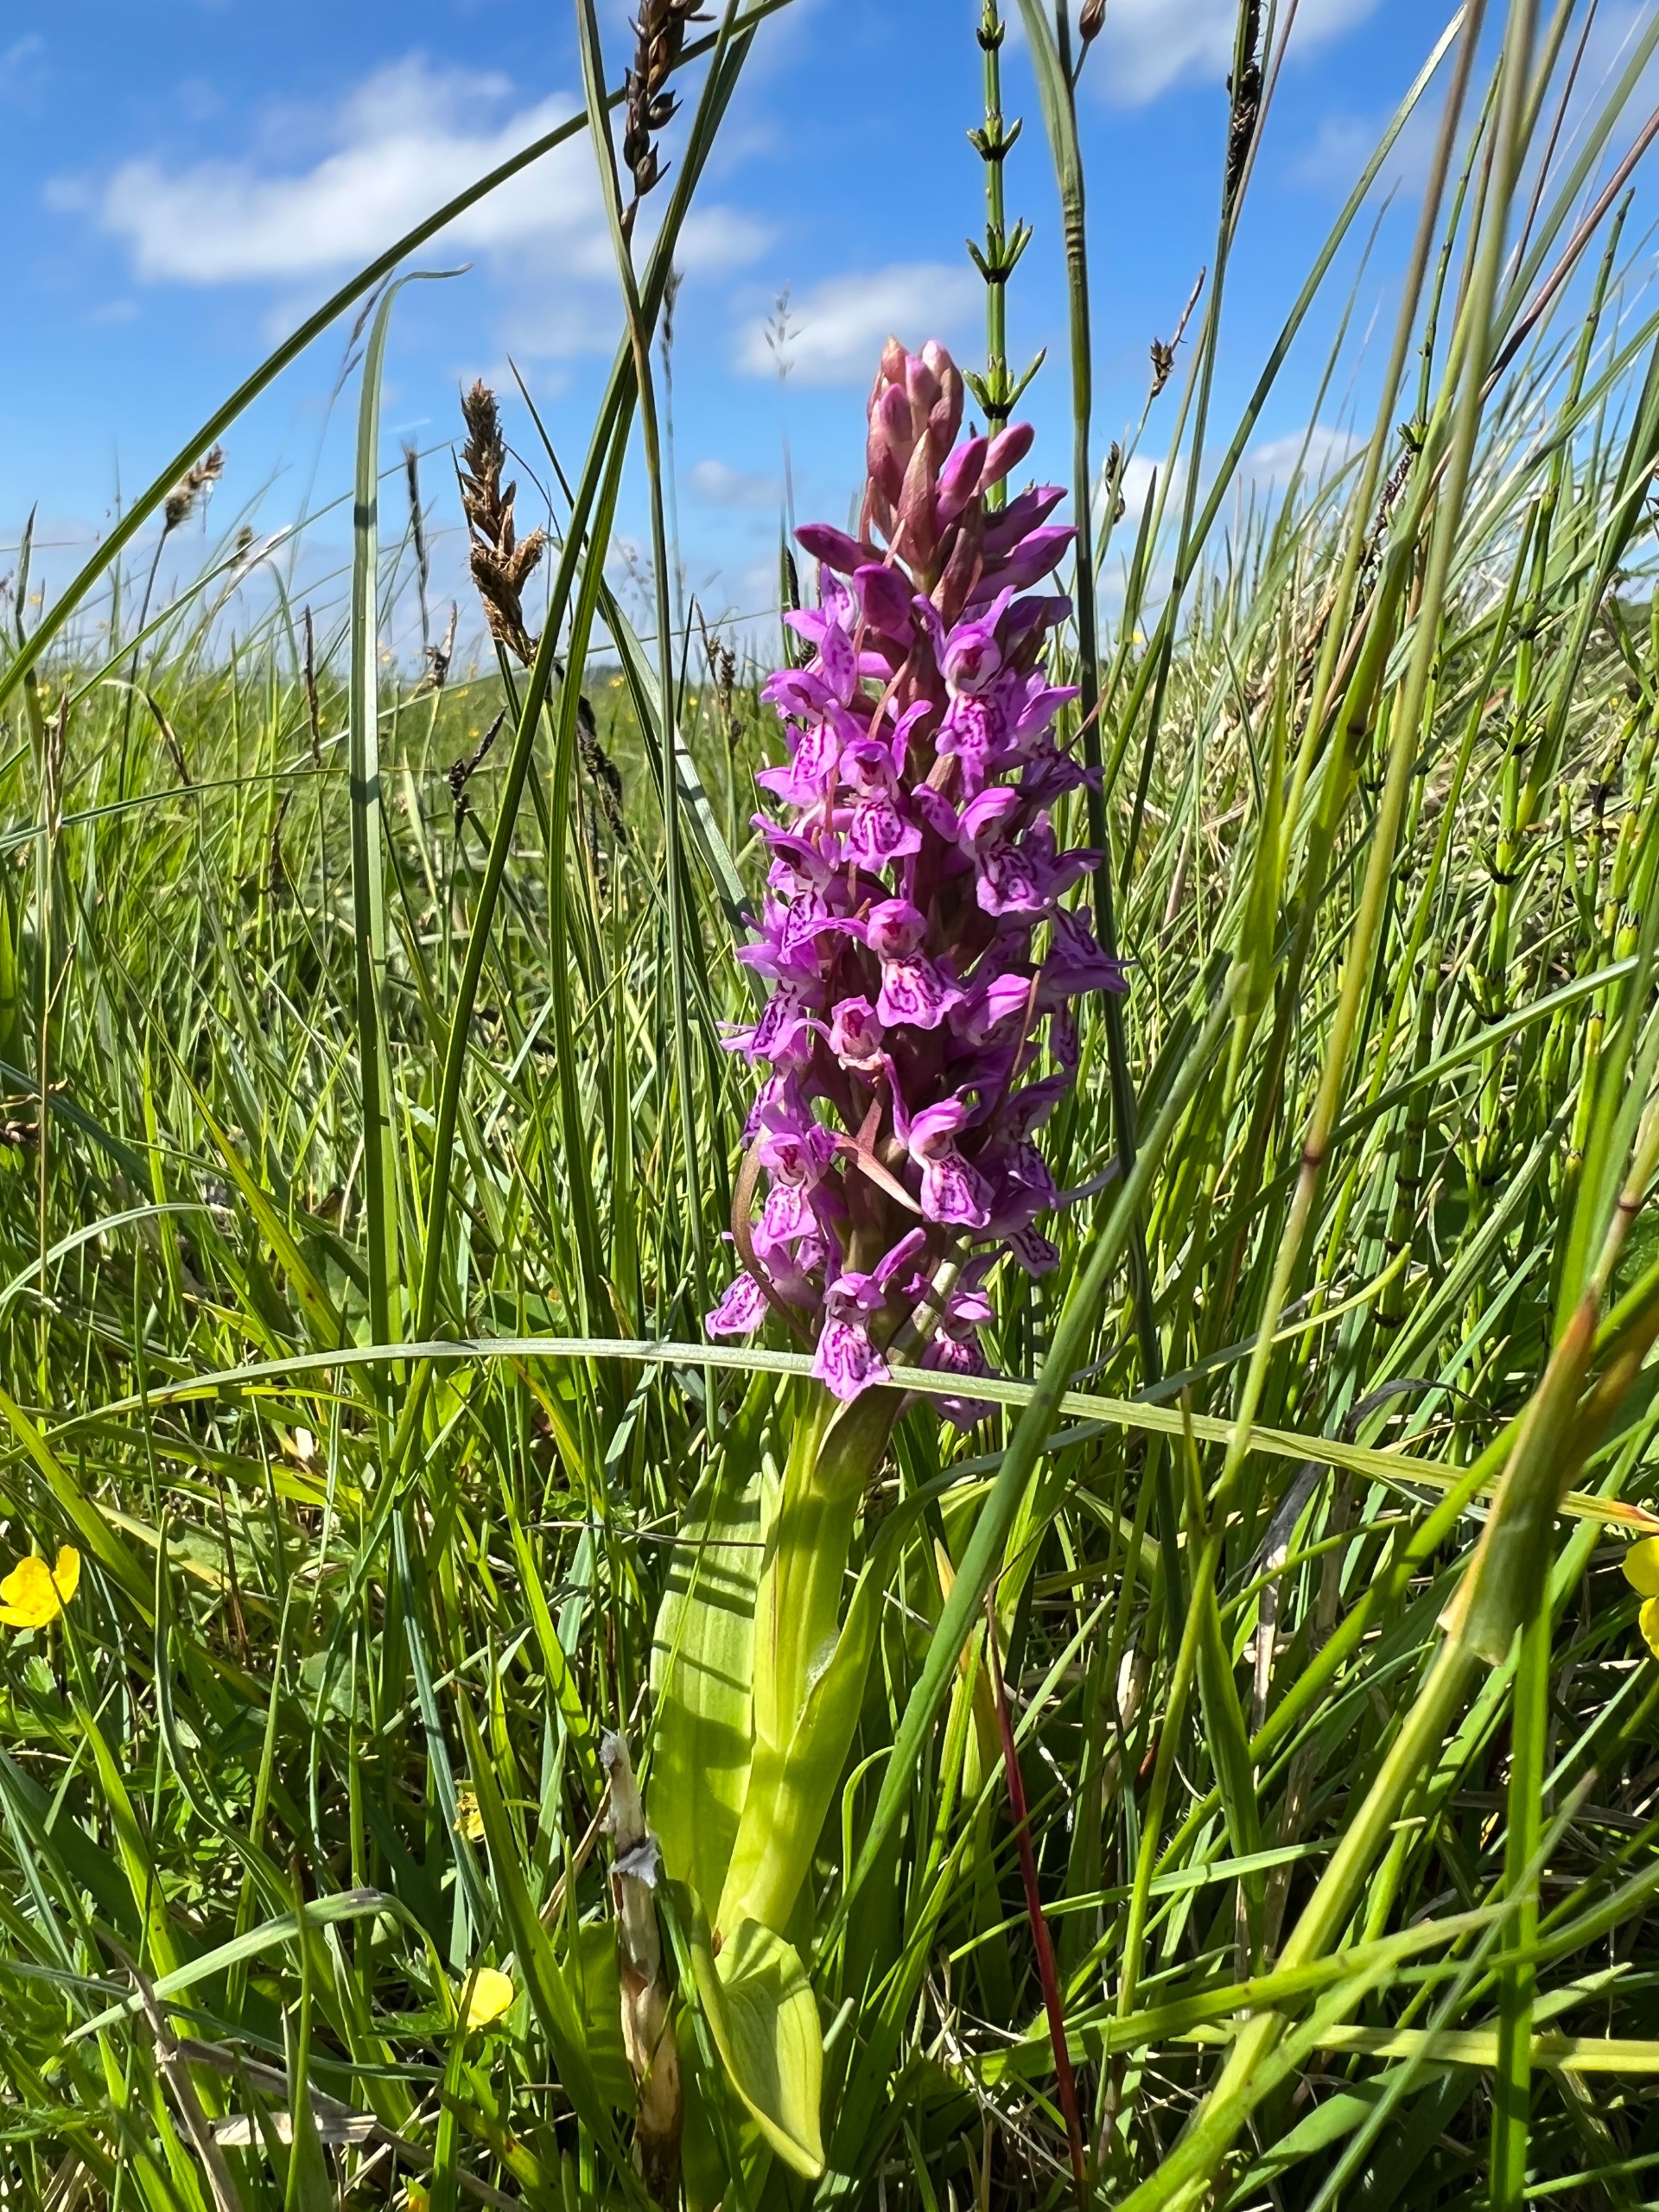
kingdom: Plantae
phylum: Tracheophyta
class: Liliopsida
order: Asparagales
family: Orchidaceae
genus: Dactylorhiza
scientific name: Dactylorhiza incarnata
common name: Kødfarvet gøgeurt
